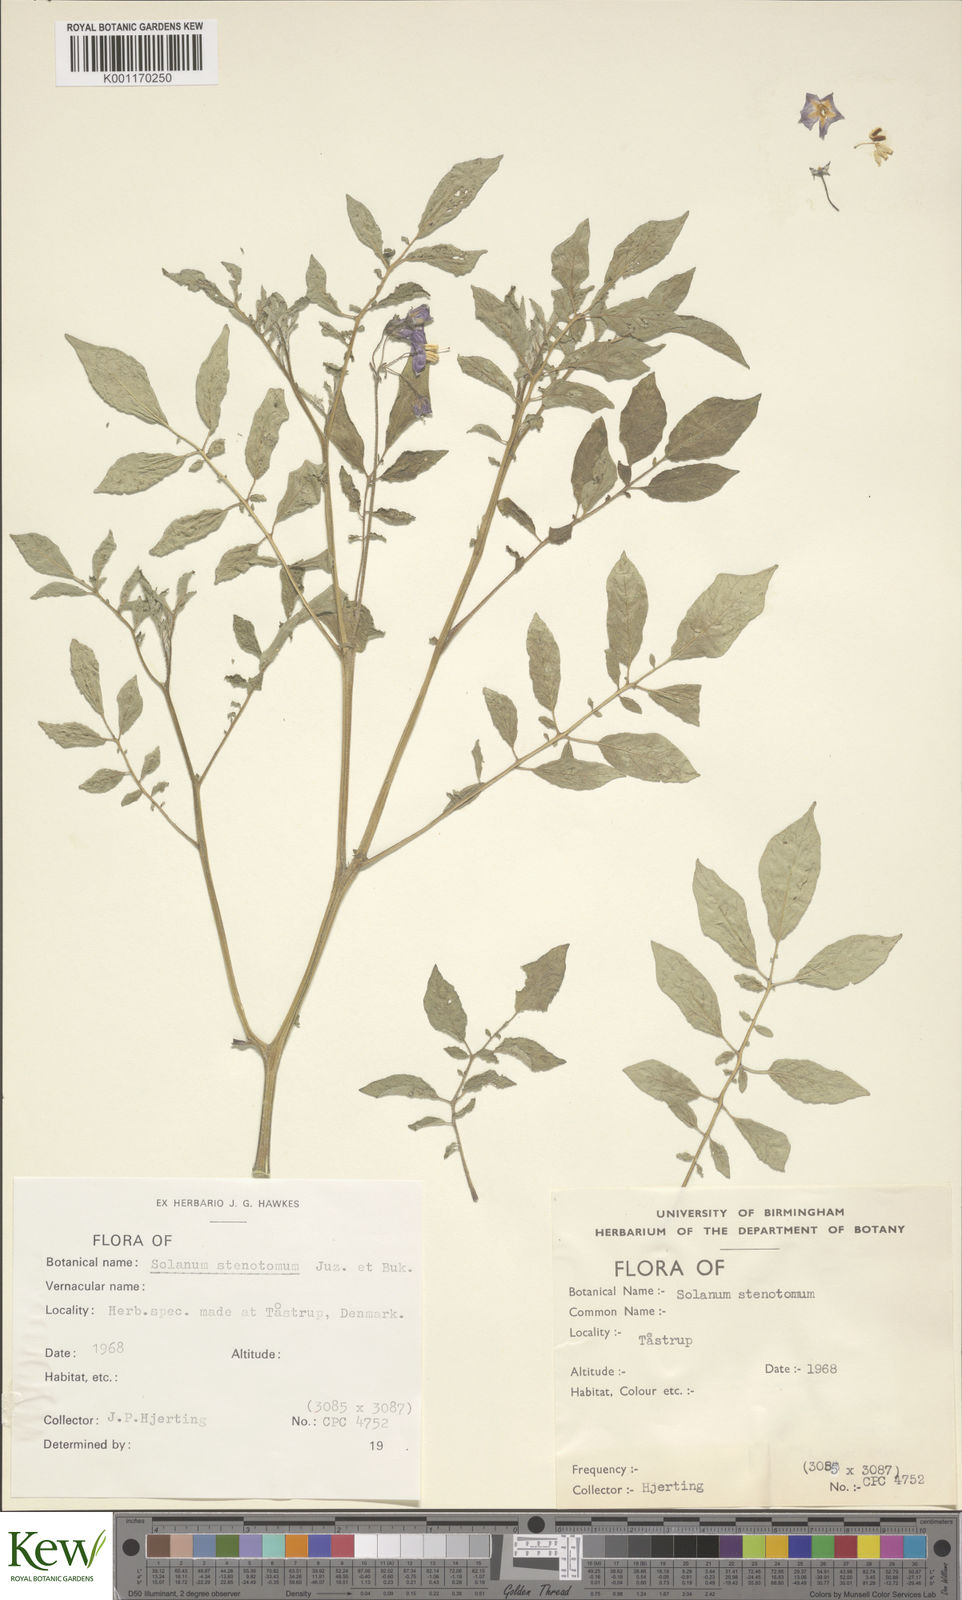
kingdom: Plantae
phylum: Tracheophyta
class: Magnoliopsida
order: Solanales
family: Solanaceae
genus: Solanum
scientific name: Solanum tuberosum
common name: Potato
